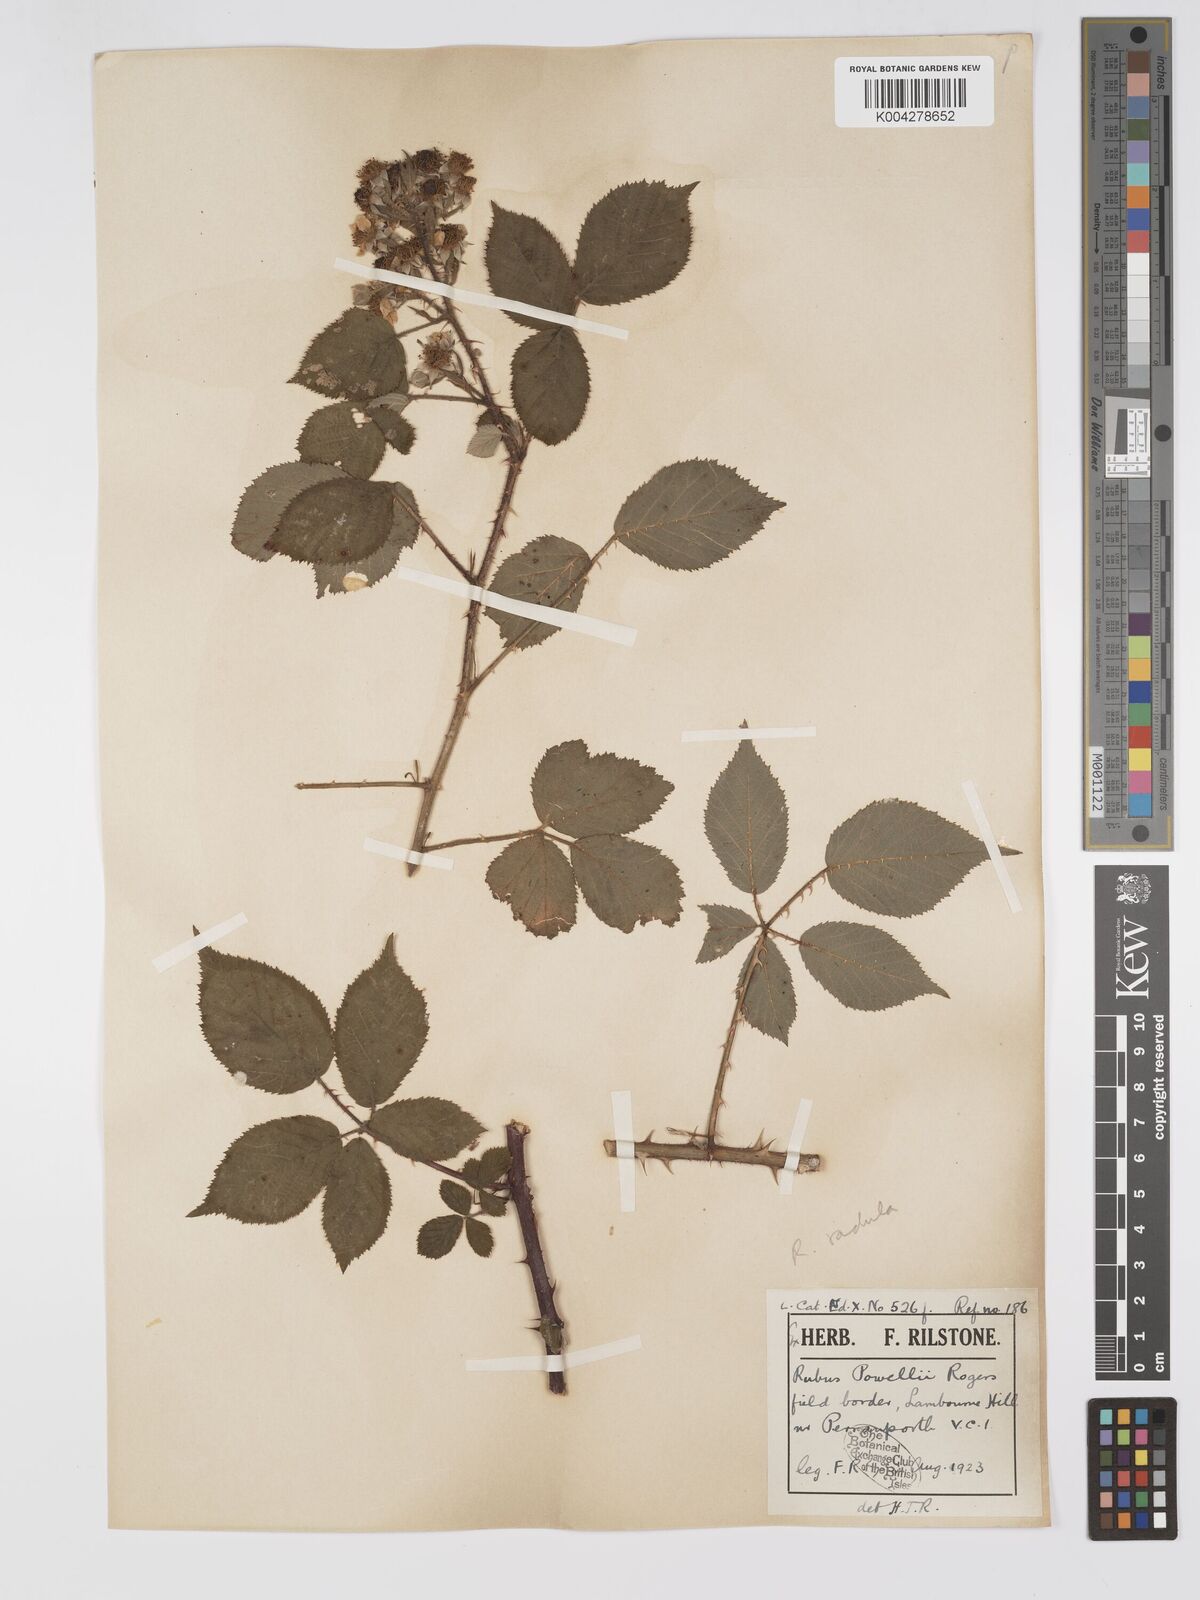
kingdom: Plantae
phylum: Tracheophyta
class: Magnoliopsida
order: Rosales
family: Rosaceae
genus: Rubus
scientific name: Rubus radula
